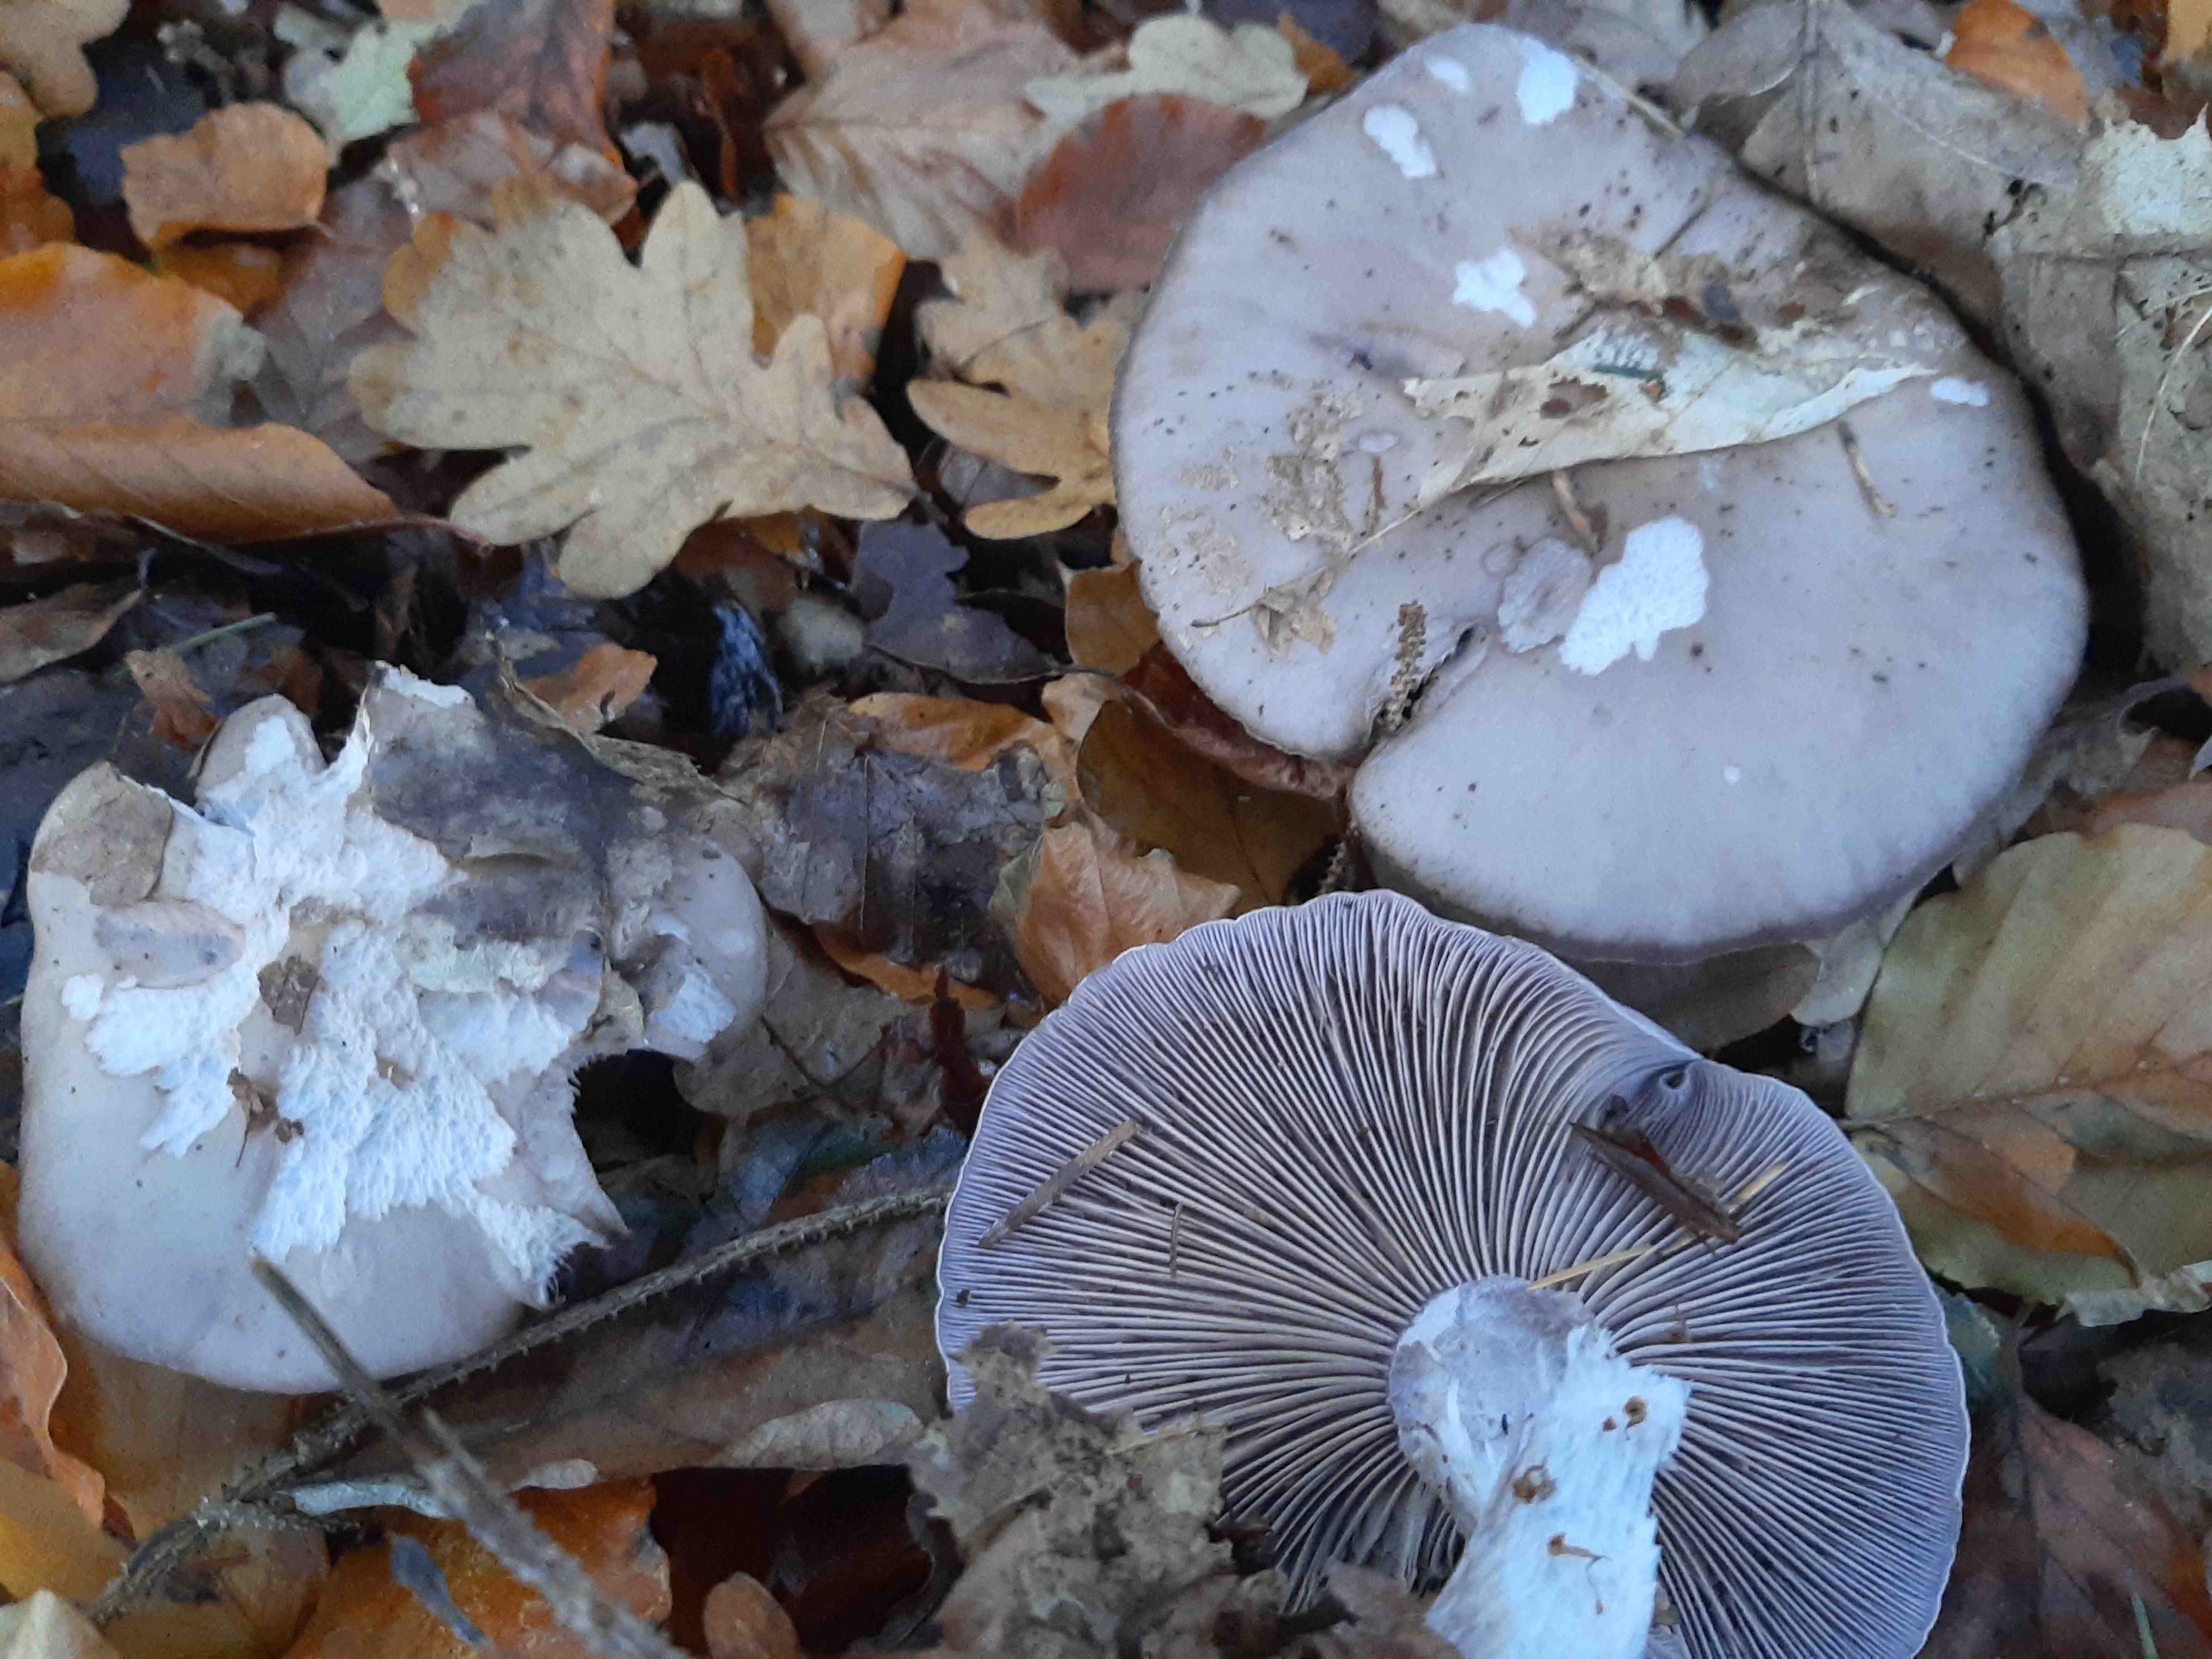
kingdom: Fungi
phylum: Basidiomycota
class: Agaricomycetes
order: Agaricales
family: Tricholomataceae
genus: Lepista
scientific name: Lepista nuda
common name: violet hekseringshat
